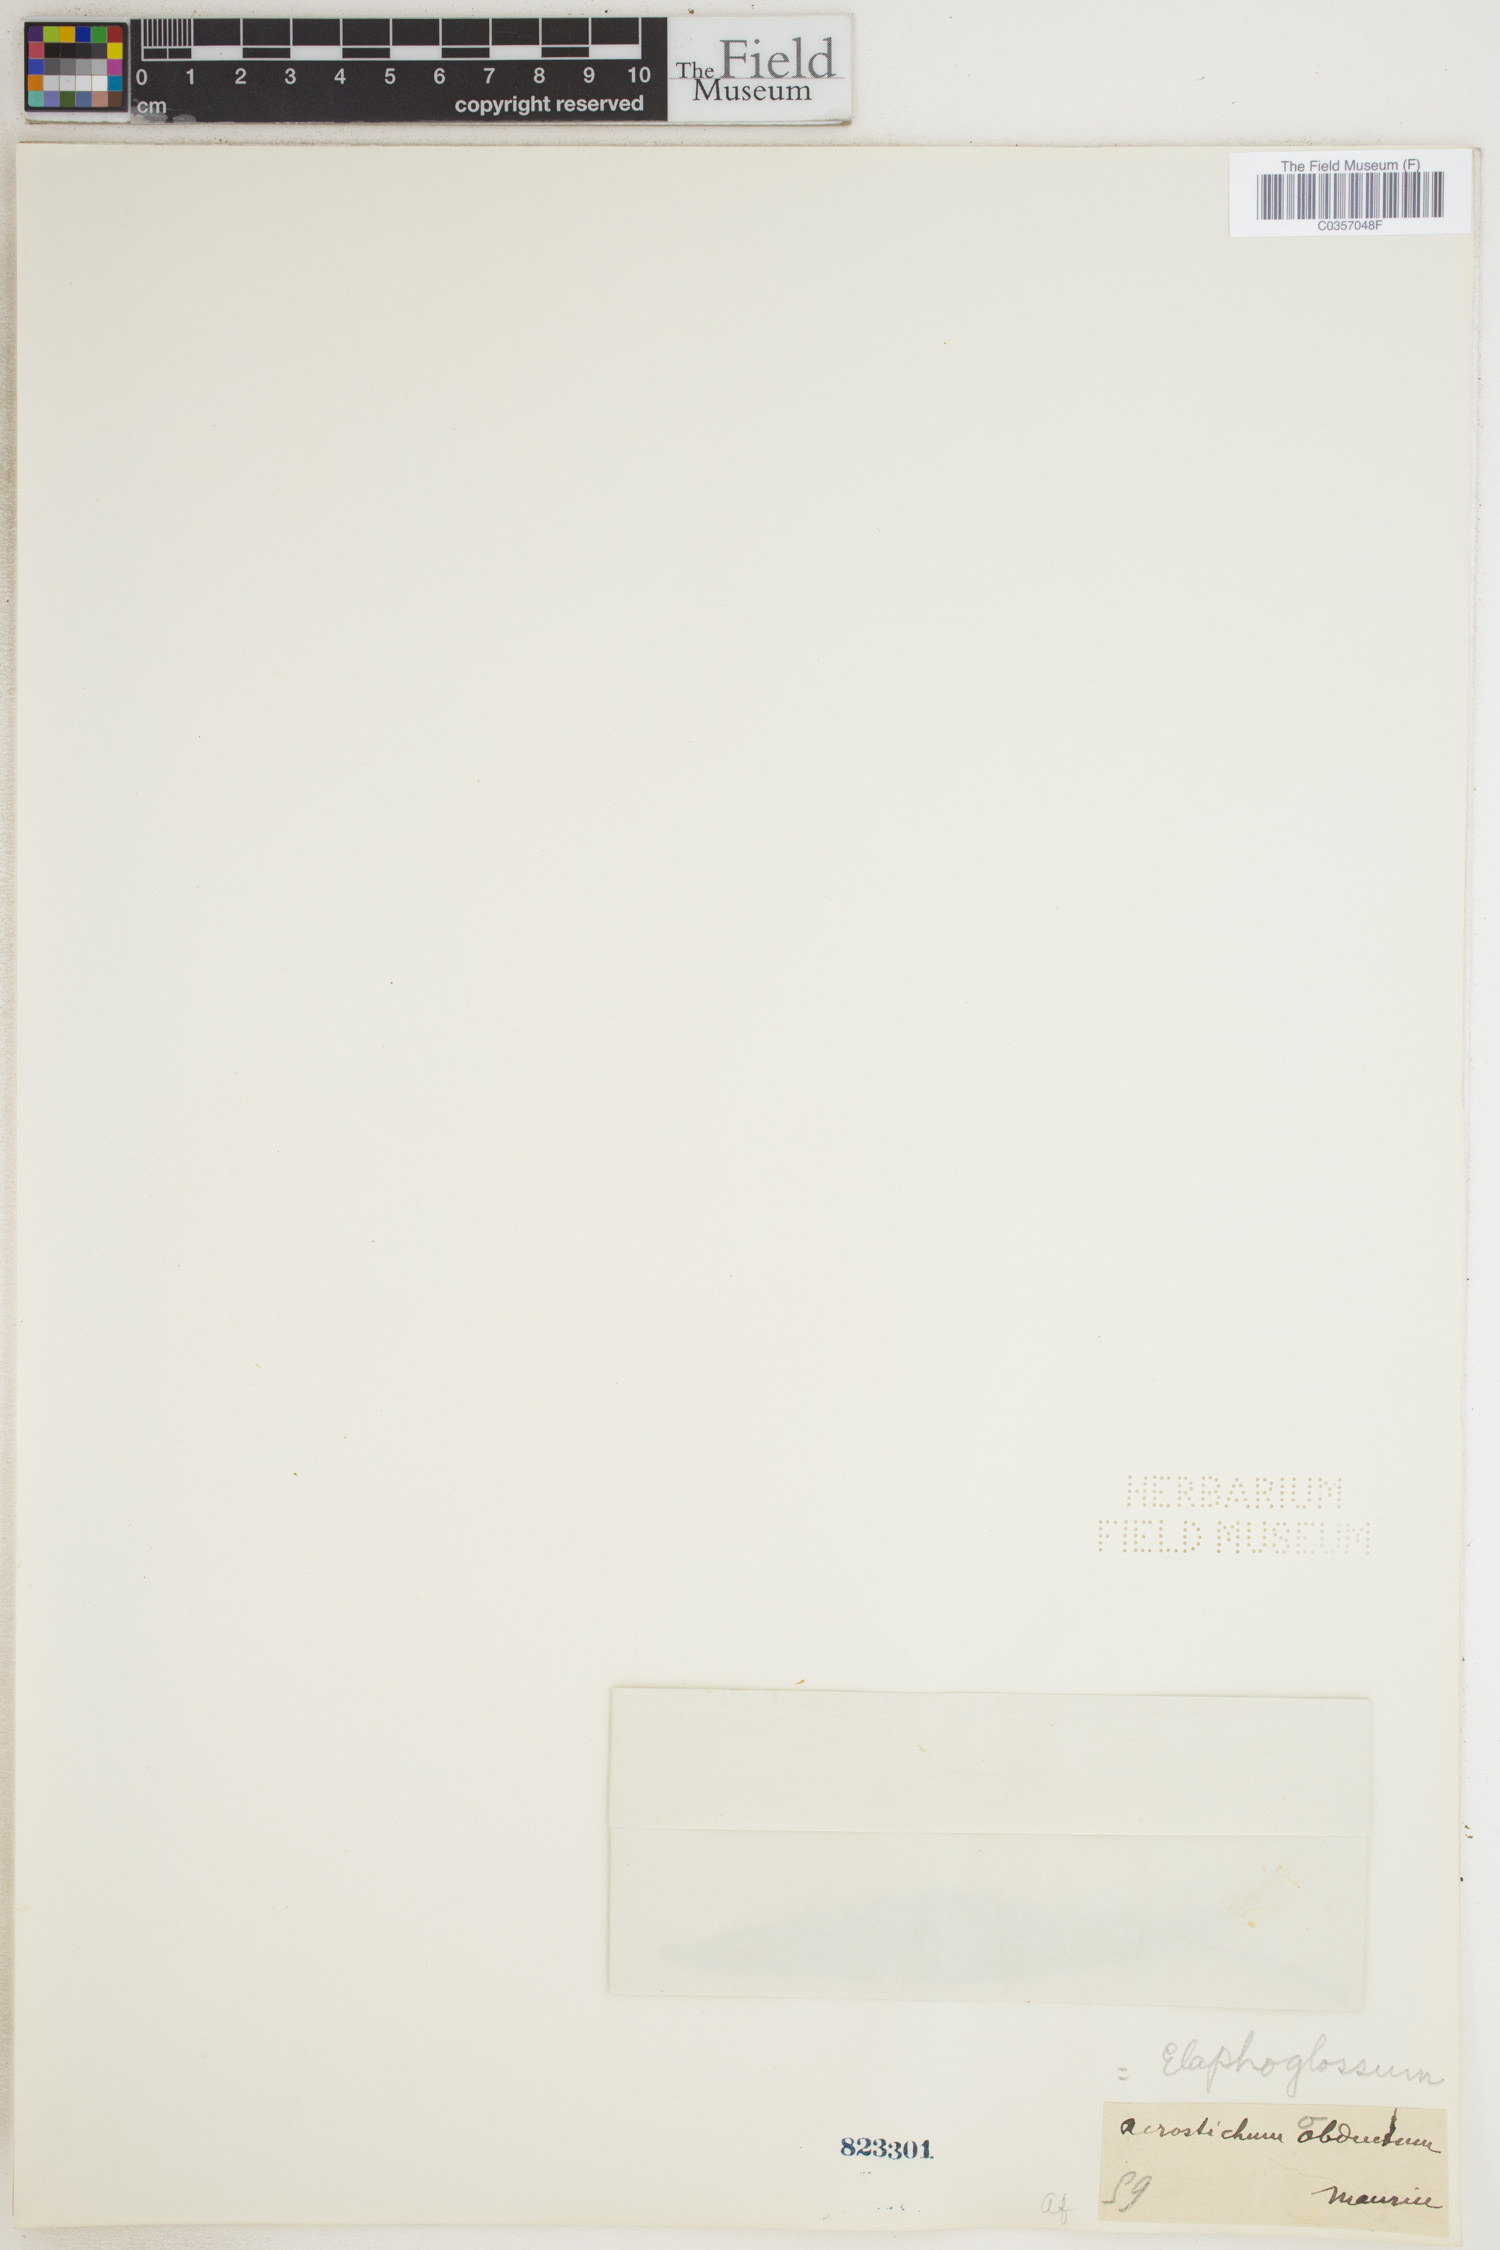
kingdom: Plantae
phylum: Tracheophyta
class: Polypodiopsida
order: Polypodiales
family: Dryopteridaceae
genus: Elaphoglossum
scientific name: Elaphoglossum
